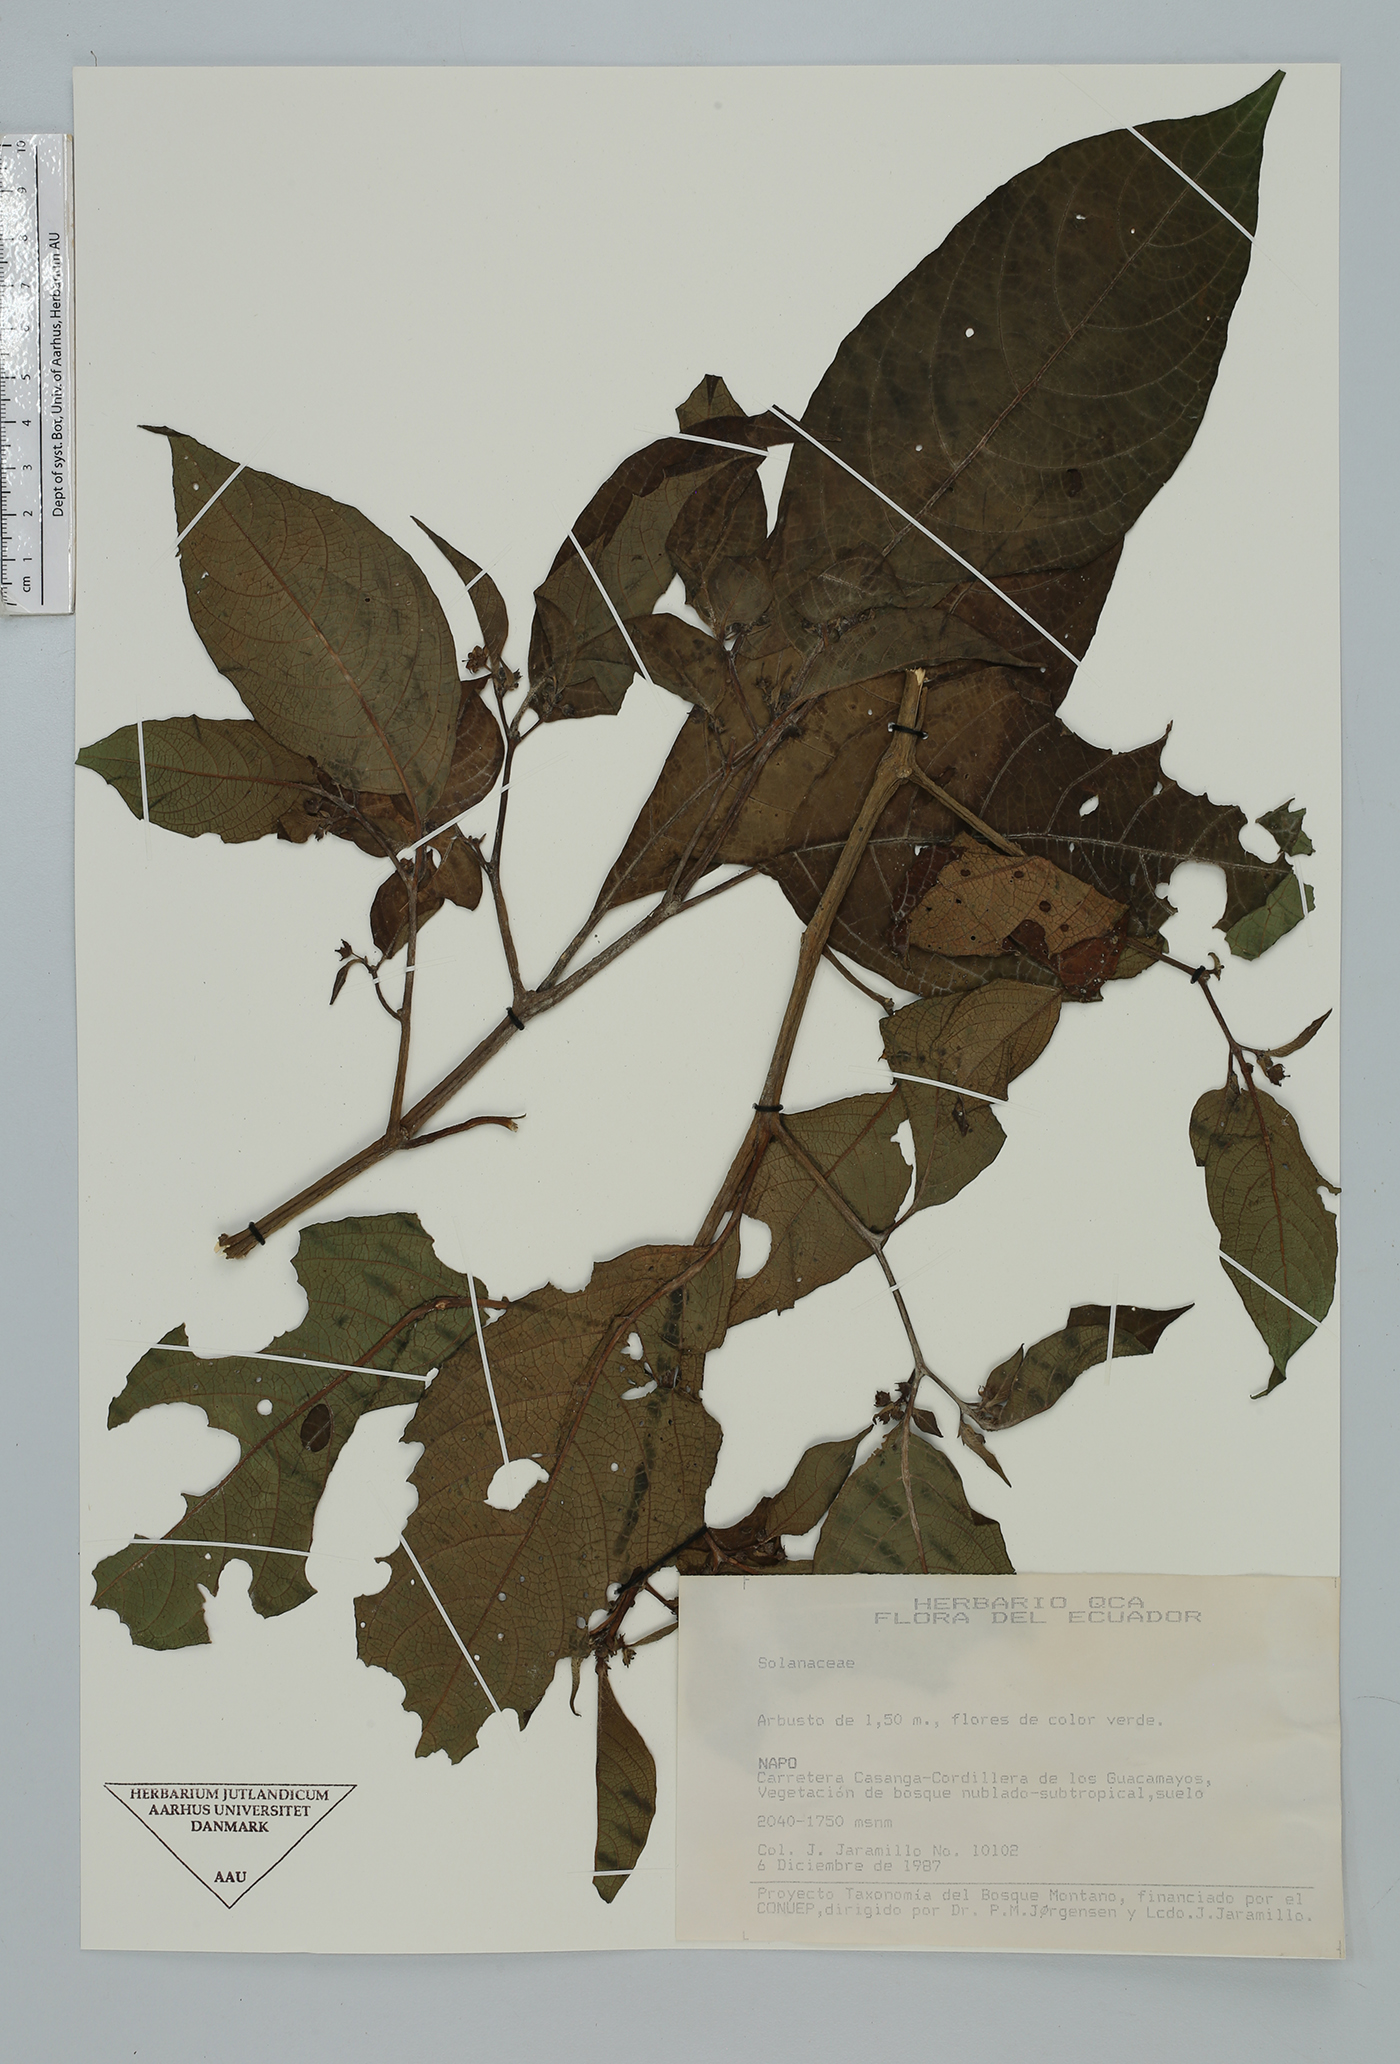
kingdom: Plantae
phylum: Tracheophyta
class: Magnoliopsida
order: Solanales
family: Solanaceae
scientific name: Solanaceae
